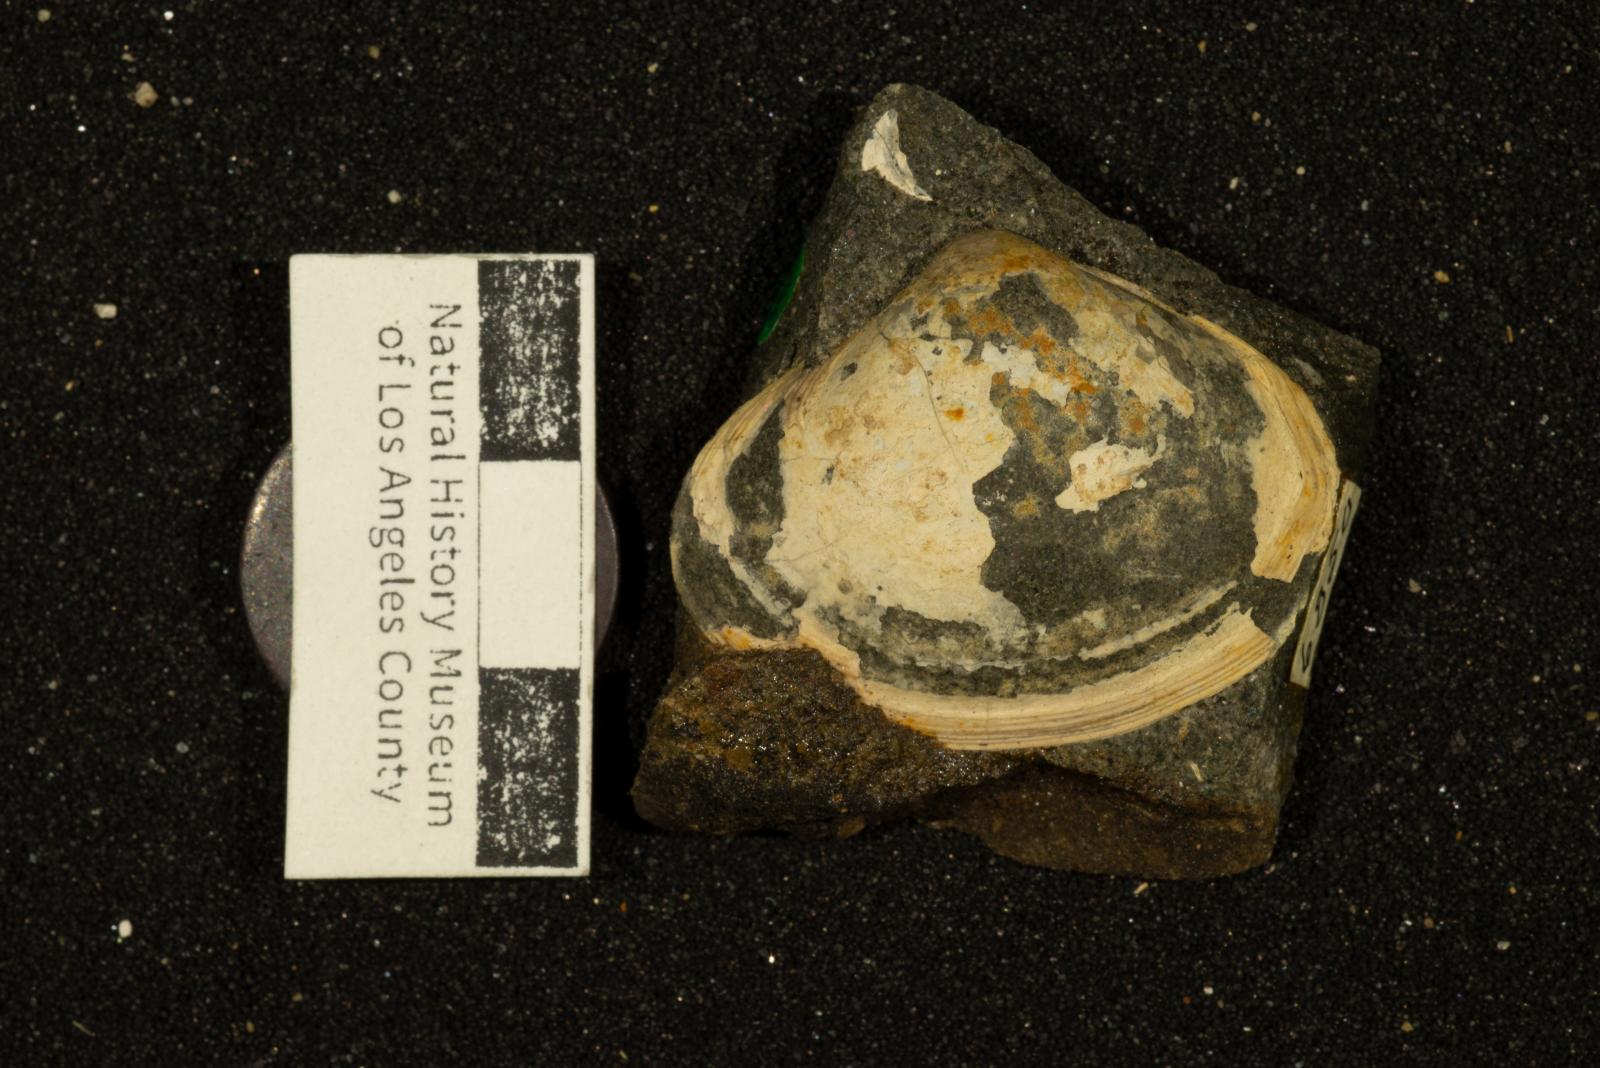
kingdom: Animalia
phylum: Mollusca
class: Bivalvia
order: Venerida
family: Mactridae
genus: Cymbophora
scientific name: Cymbophora Mactra stantoni
